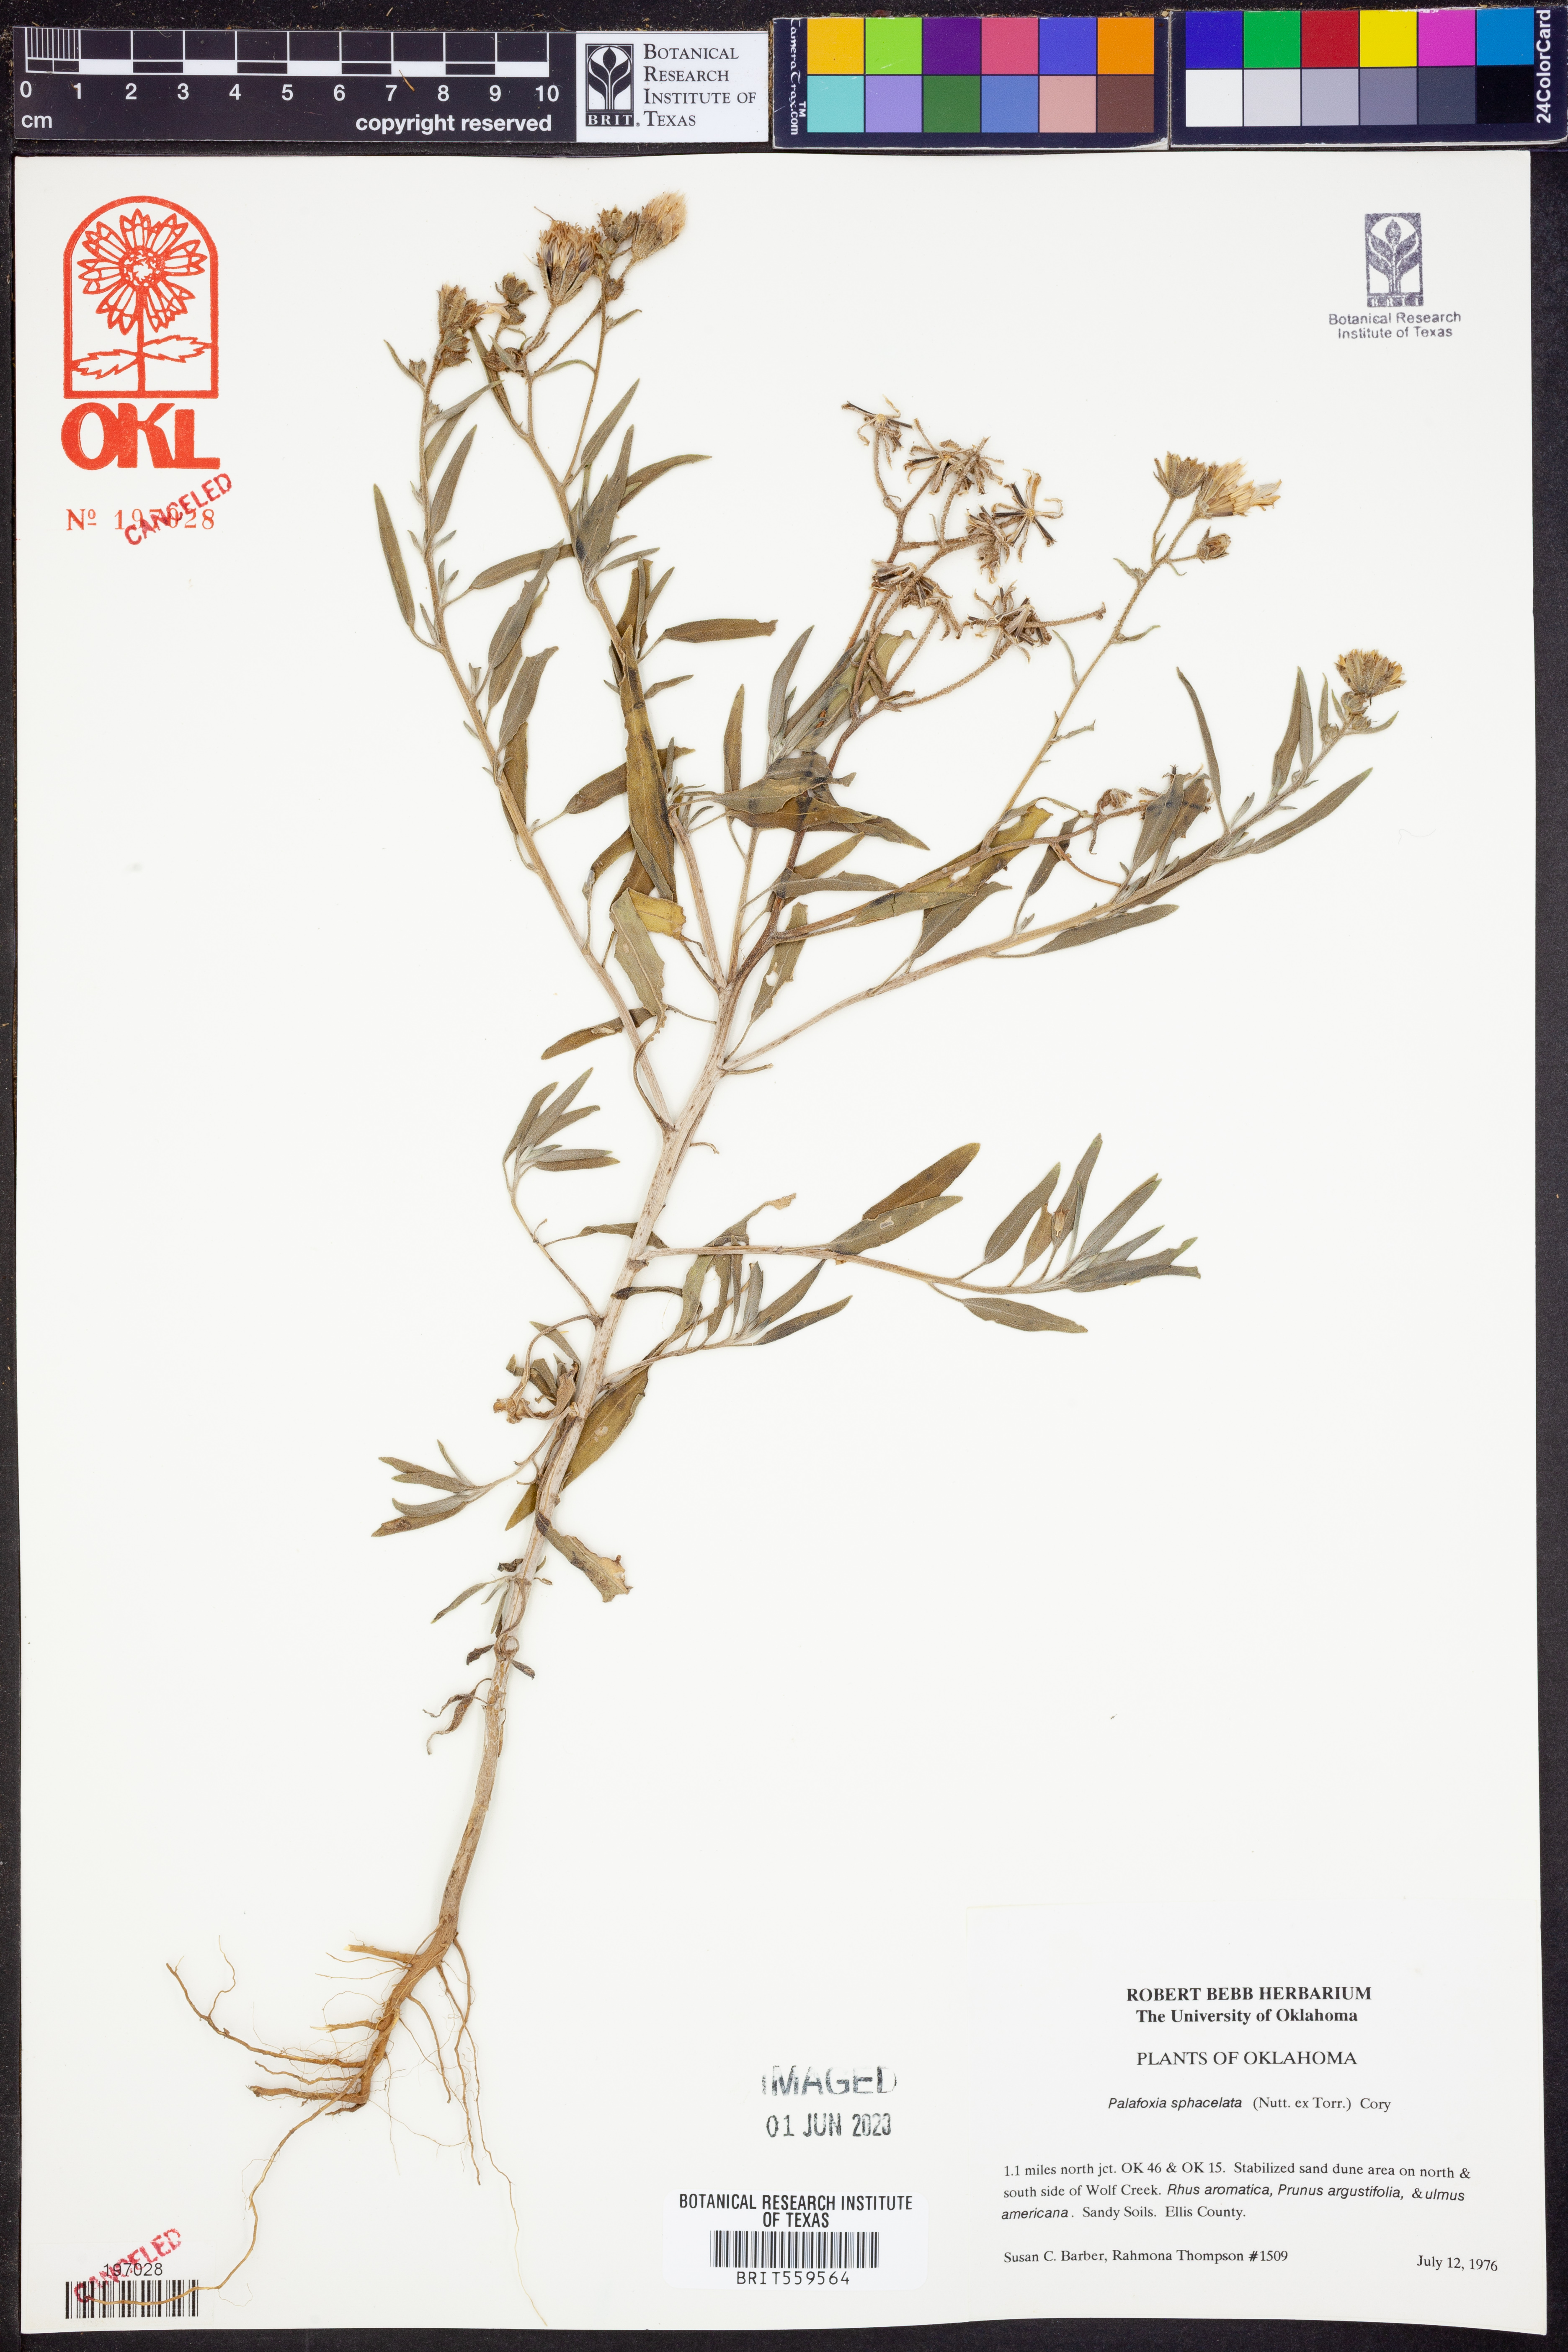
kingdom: Plantae
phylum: Tracheophyta
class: Magnoliopsida
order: Asterales
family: Asteraceae
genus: Palafoxia
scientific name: Palafoxia sphacelata
